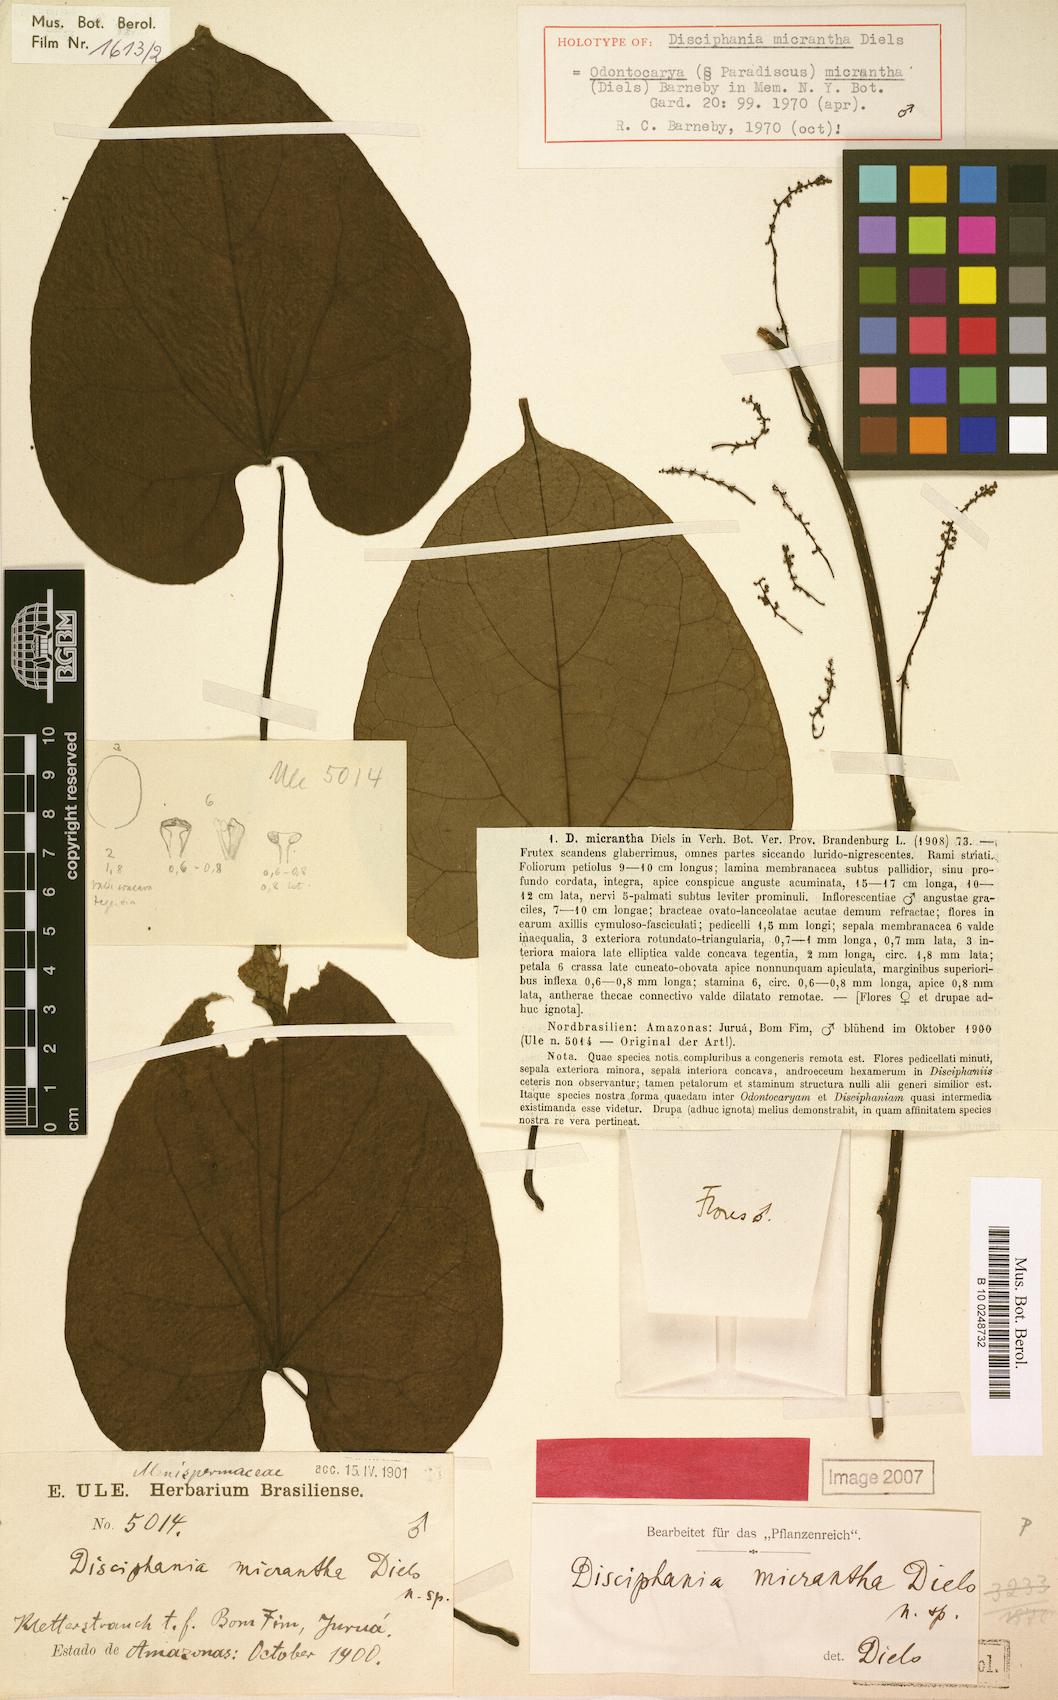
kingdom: Plantae
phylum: Tracheophyta
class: Magnoliopsida
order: Ranunculales
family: Menispermaceae
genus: Odontocarya
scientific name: Odontocarya micrantha
